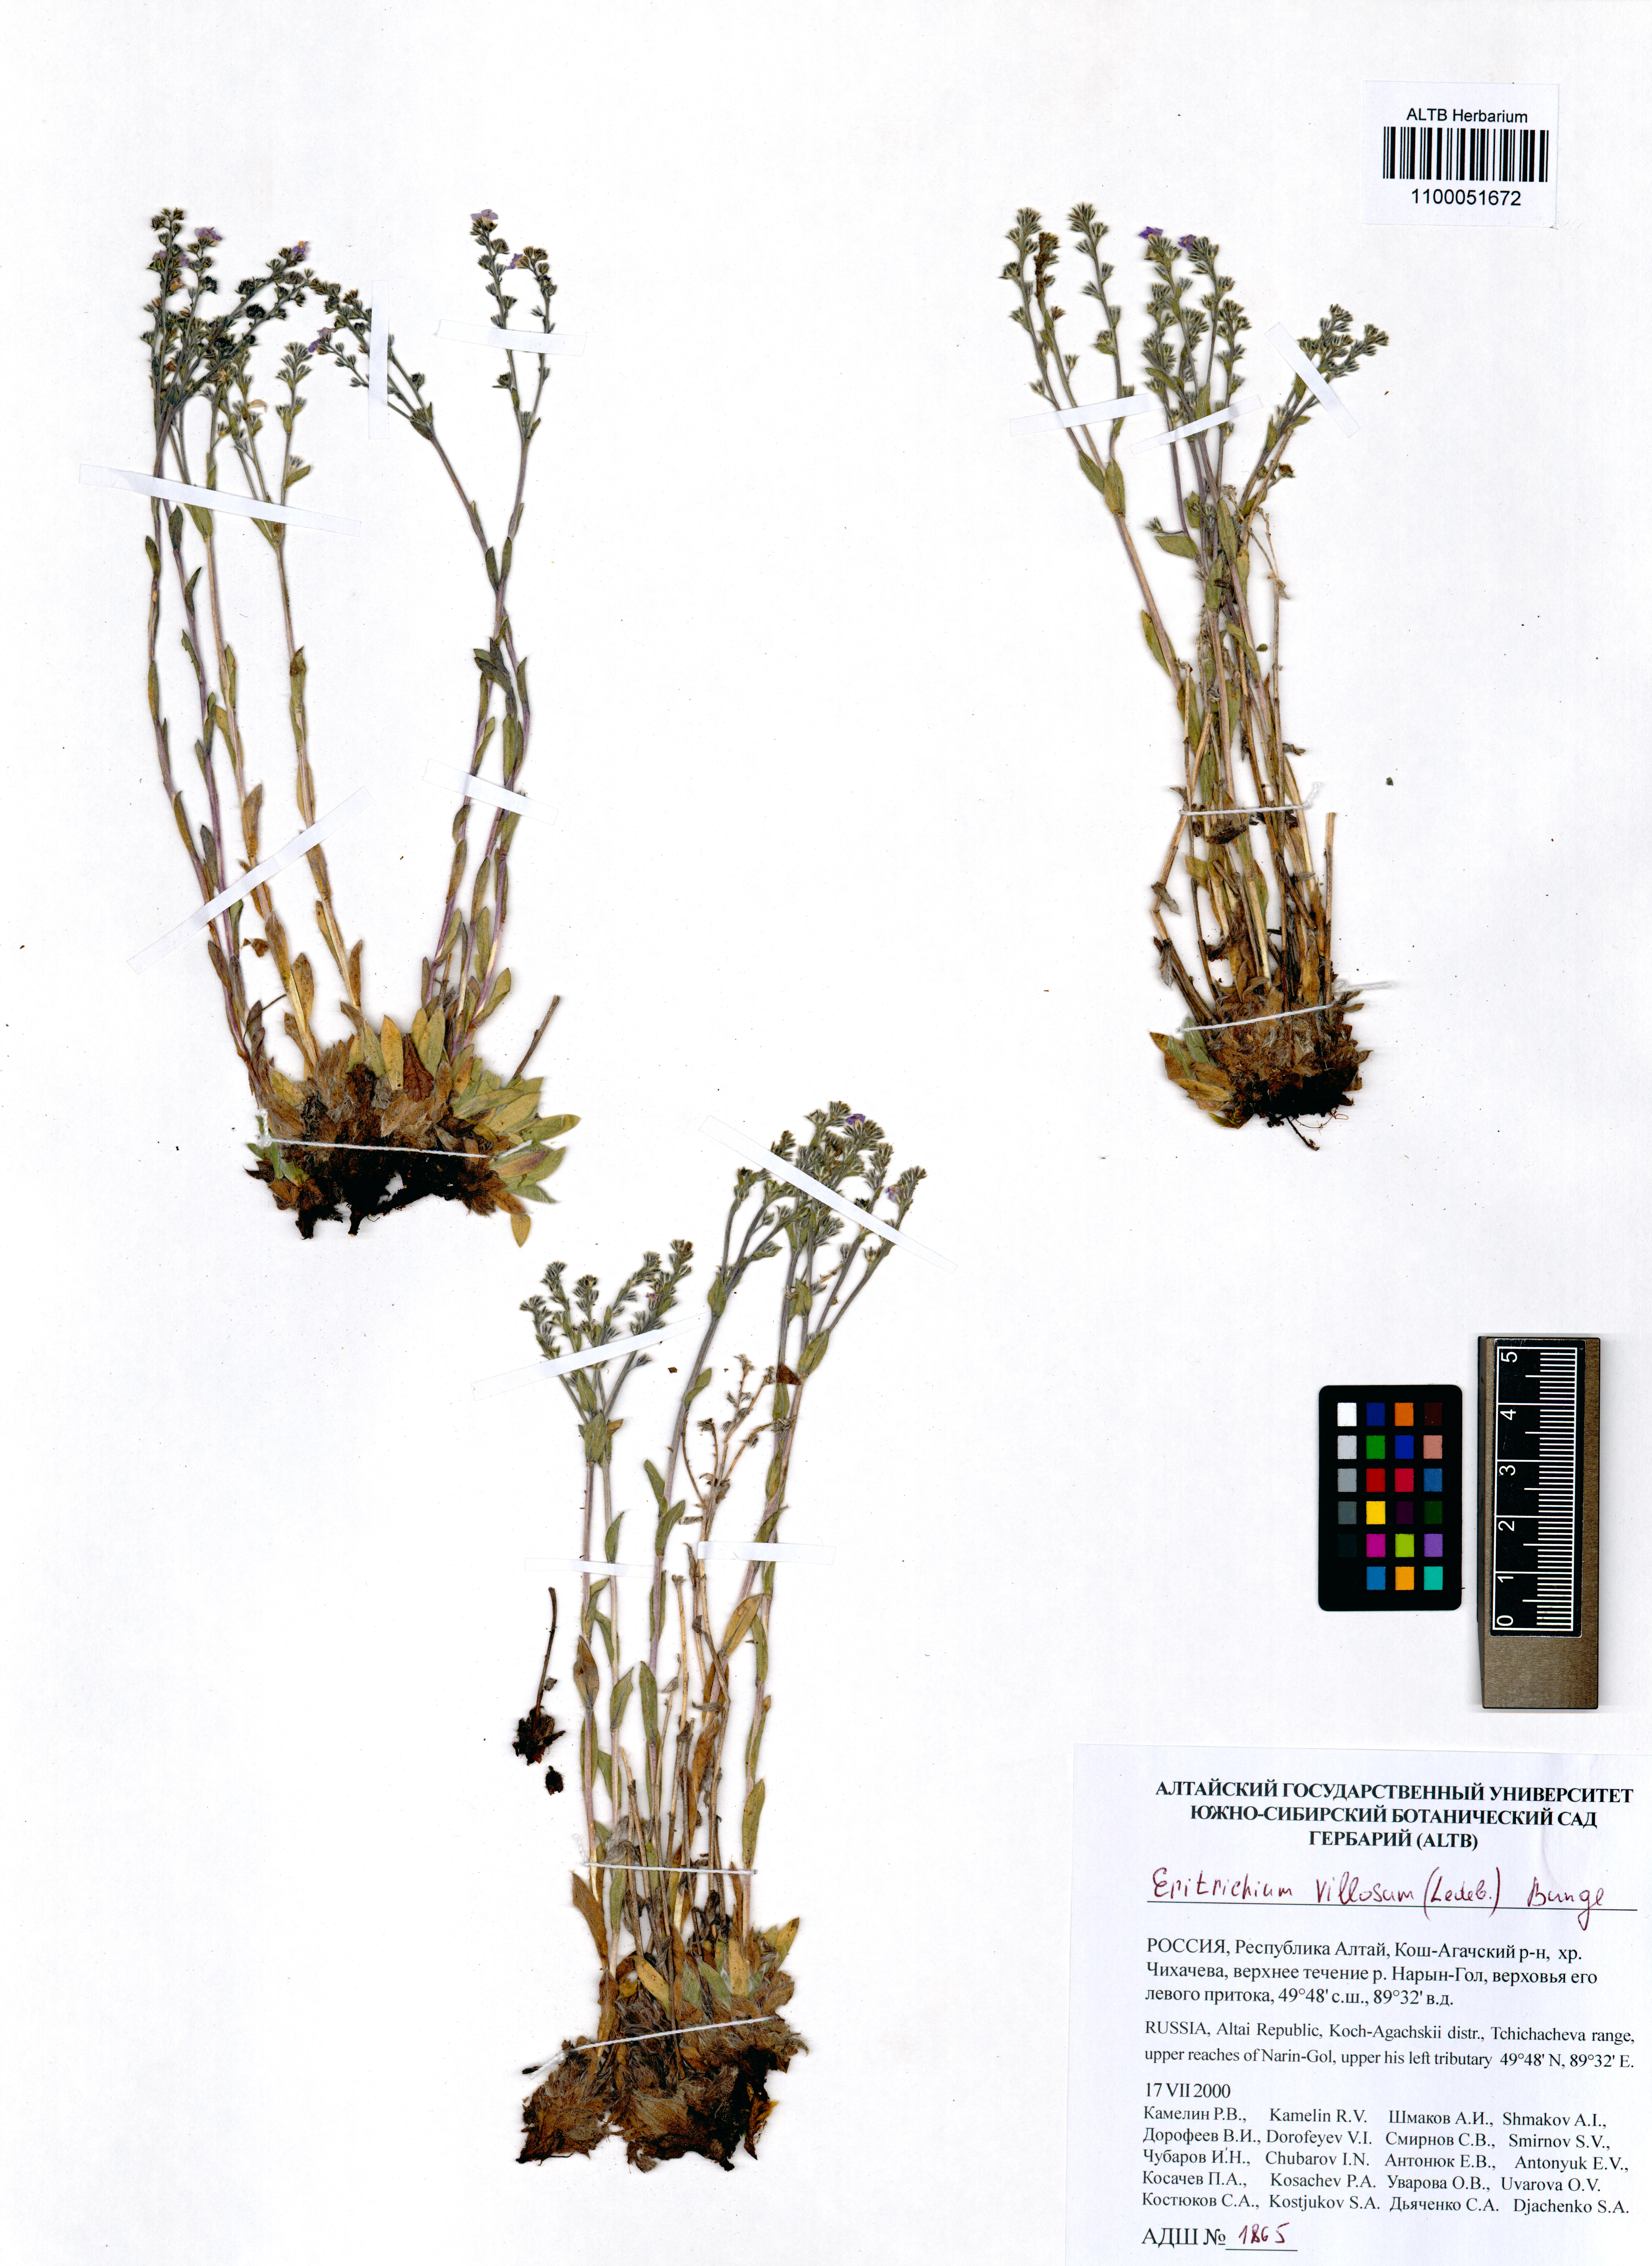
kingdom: Plantae
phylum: Tracheophyta
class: Magnoliopsida
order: Boraginales
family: Boraginaceae
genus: Eritrichium
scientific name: Eritrichium villosum
